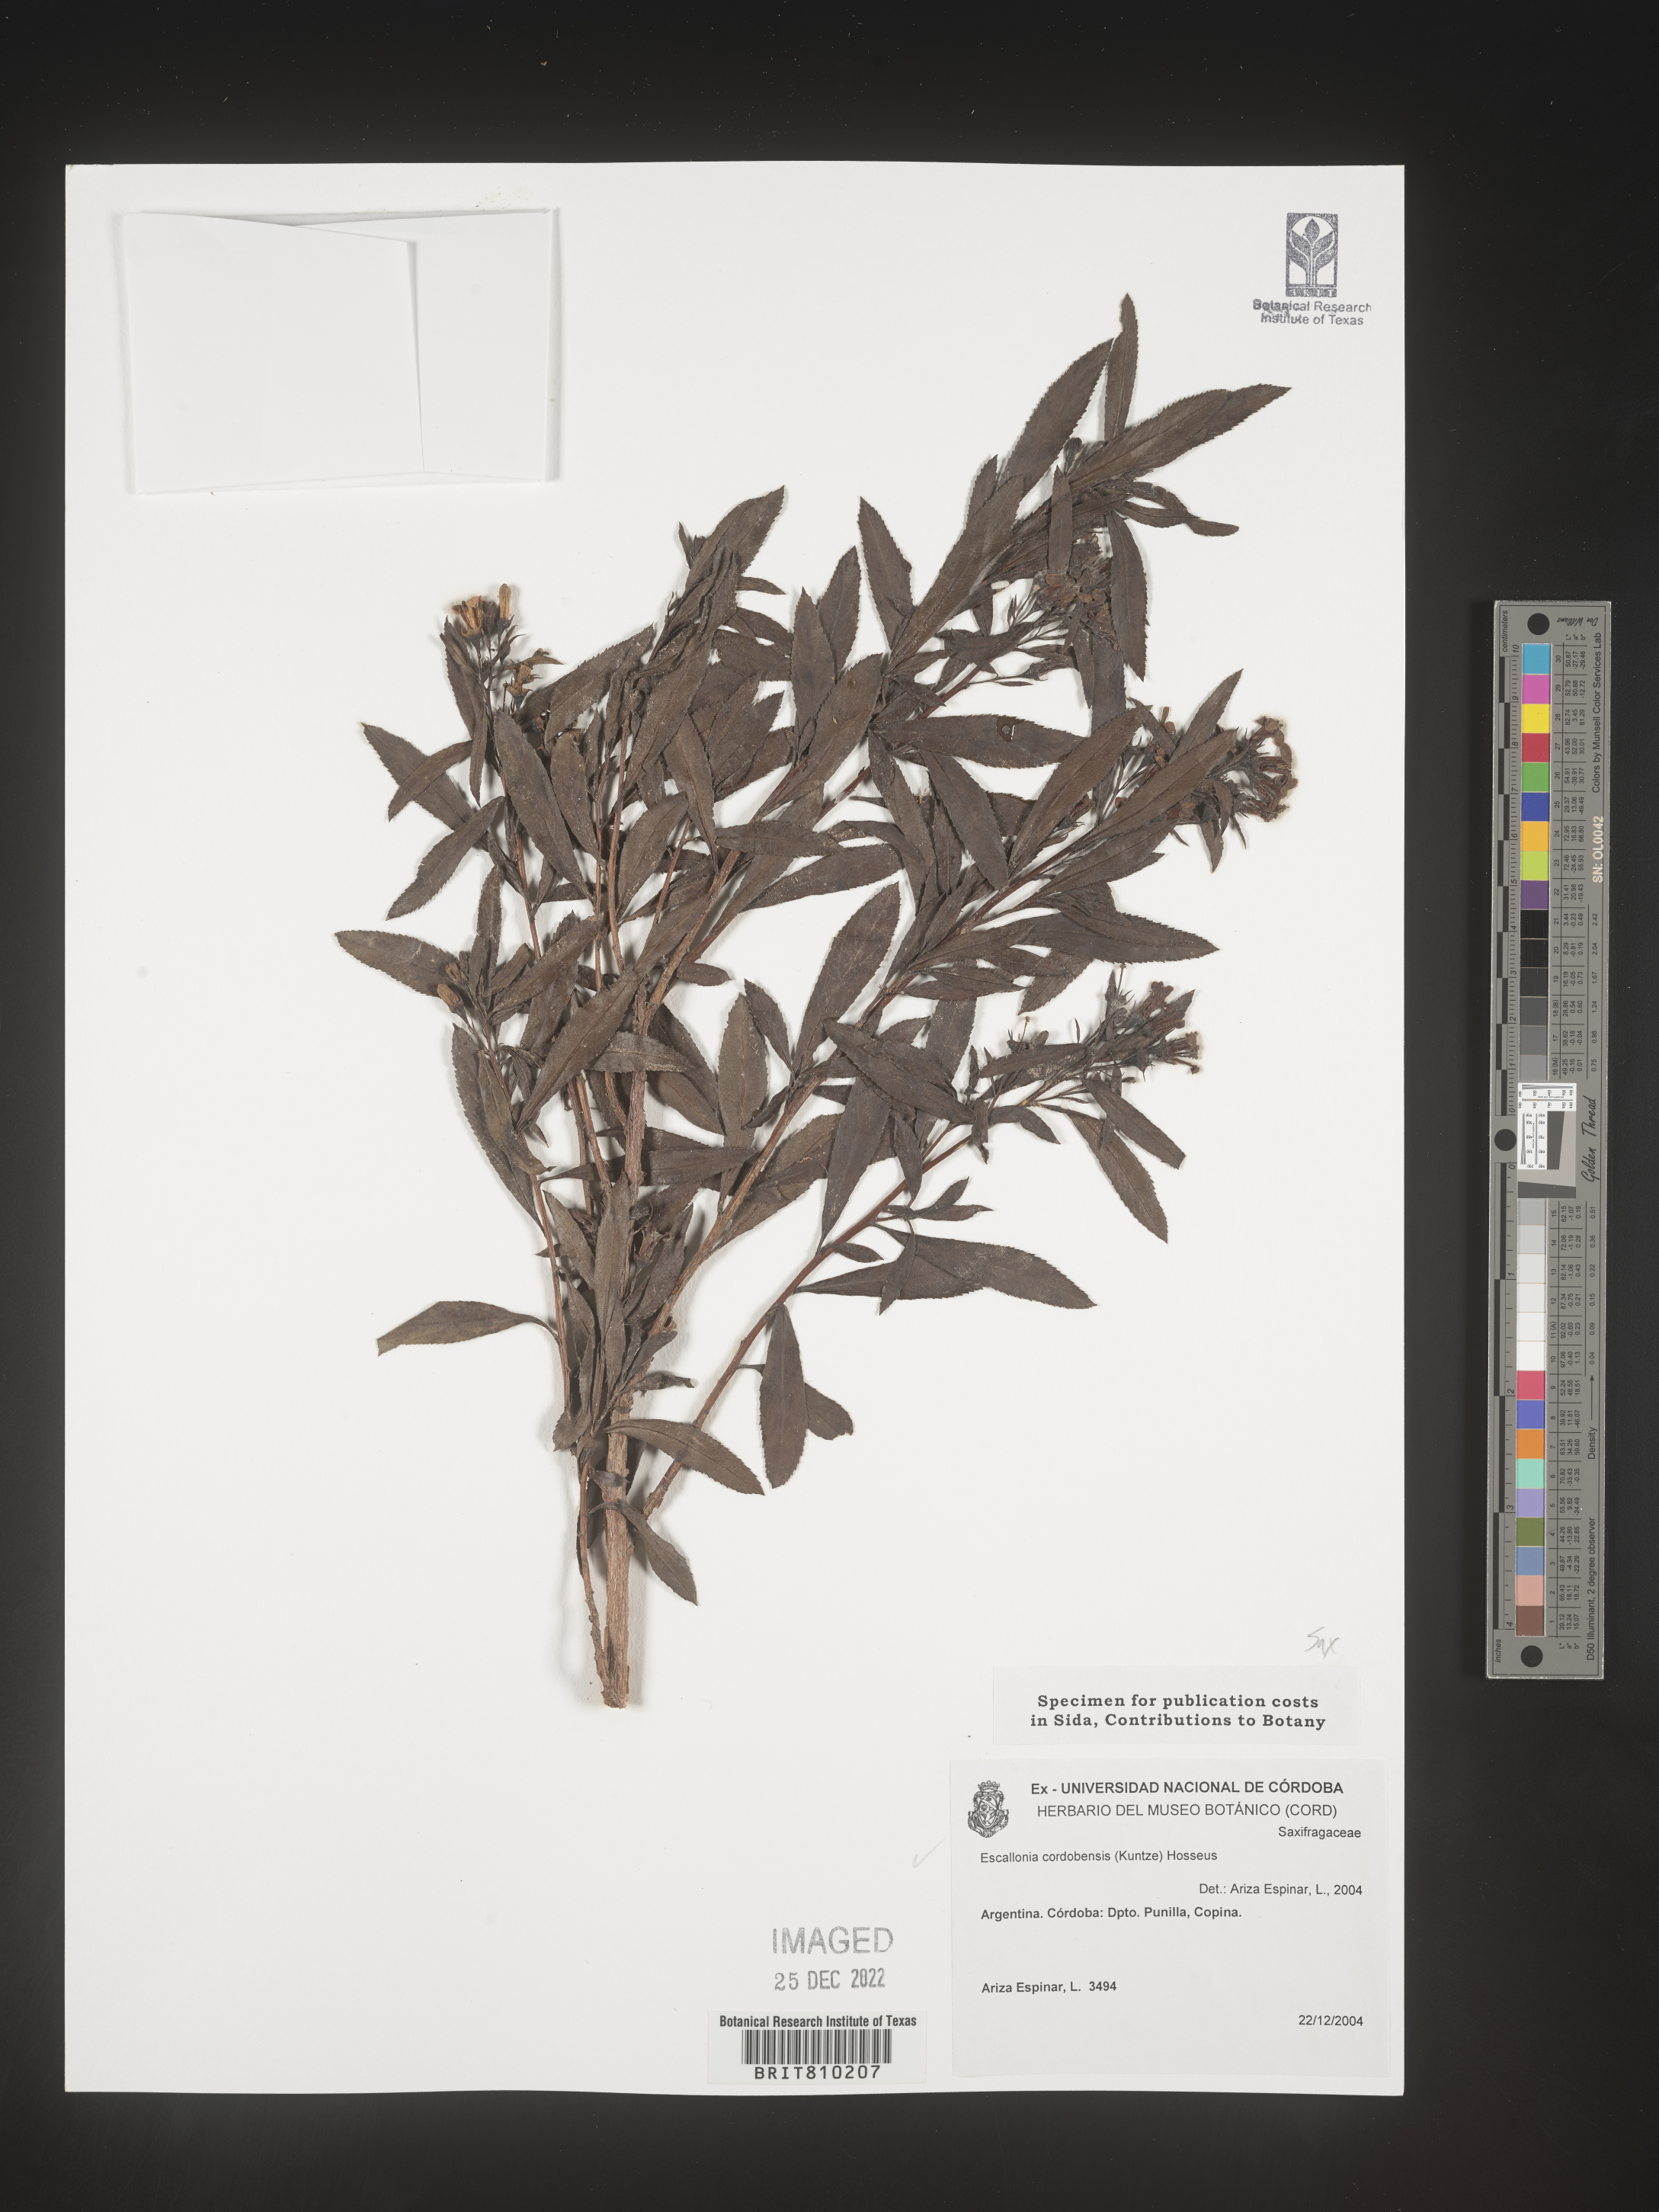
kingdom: Plantae
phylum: Tracheophyta
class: Magnoliopsida
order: Escalloniales
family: Escalloniaceae
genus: Escallonia
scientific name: Escallonia
